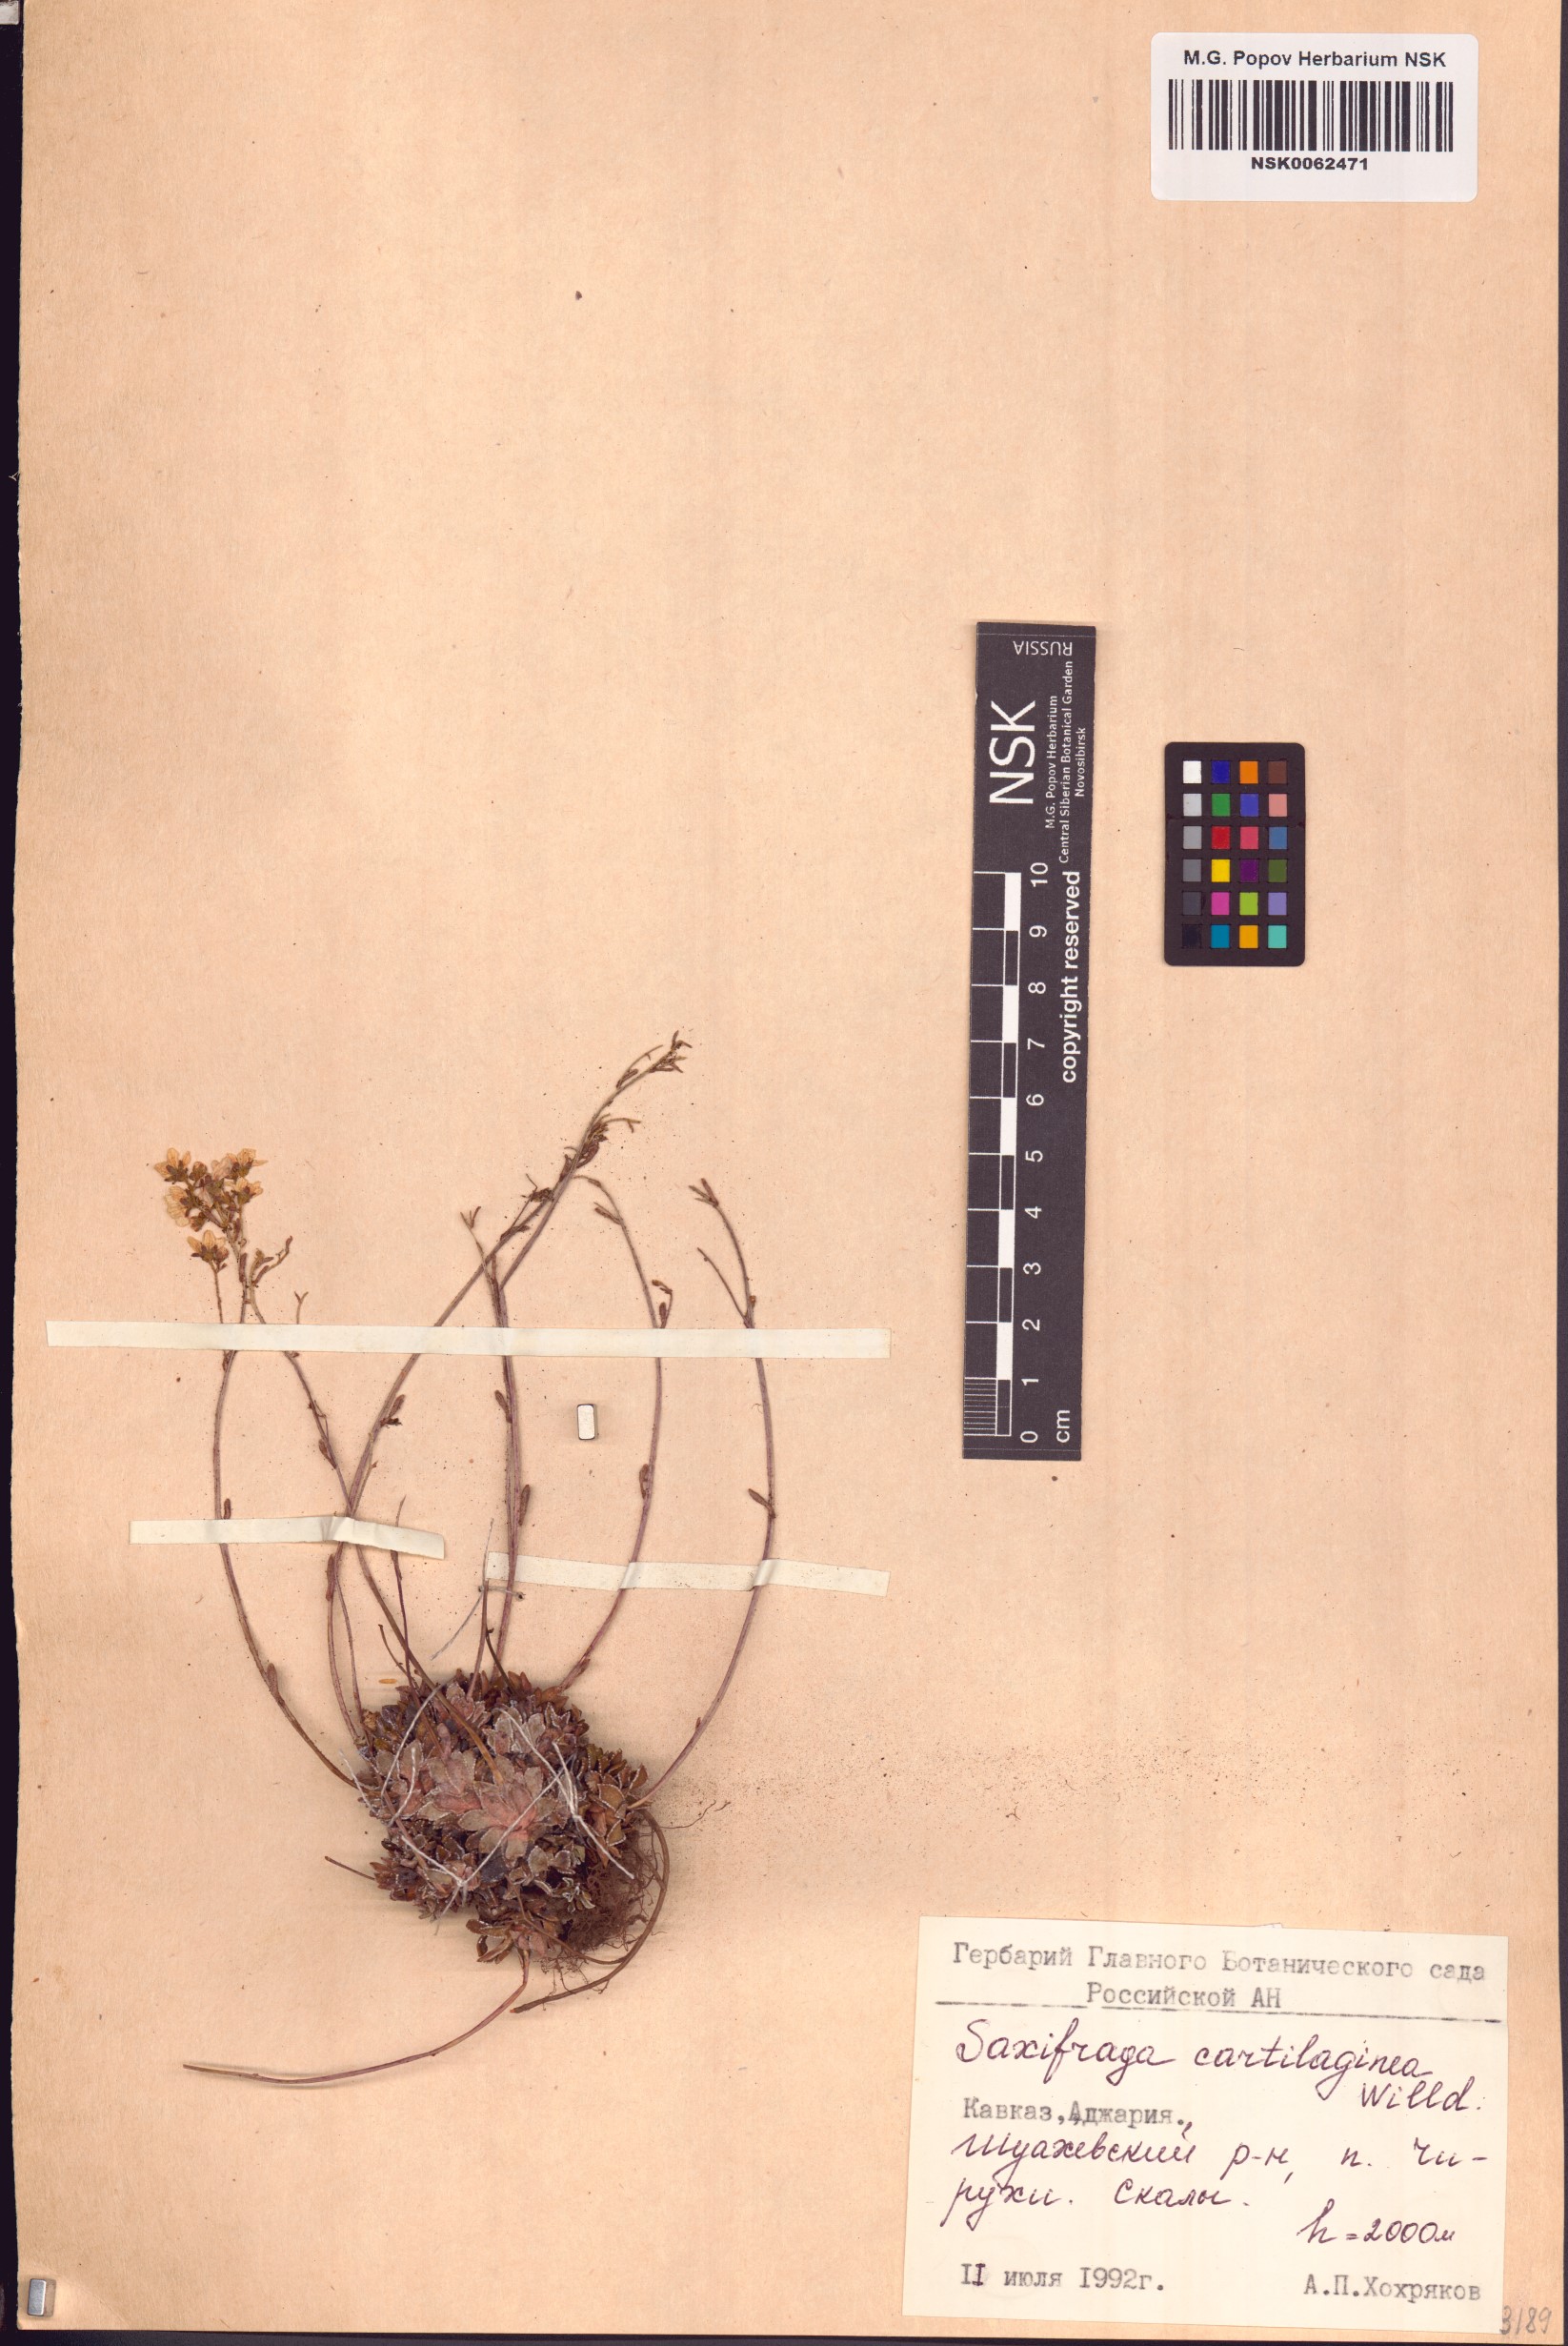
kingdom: Plantae
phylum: Tracheophyta
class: Magnoliopsida
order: Saxifragales
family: Saxifragaceae
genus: Saxifraga
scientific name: Saxifraga paniculata
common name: Livelong saxifrage
